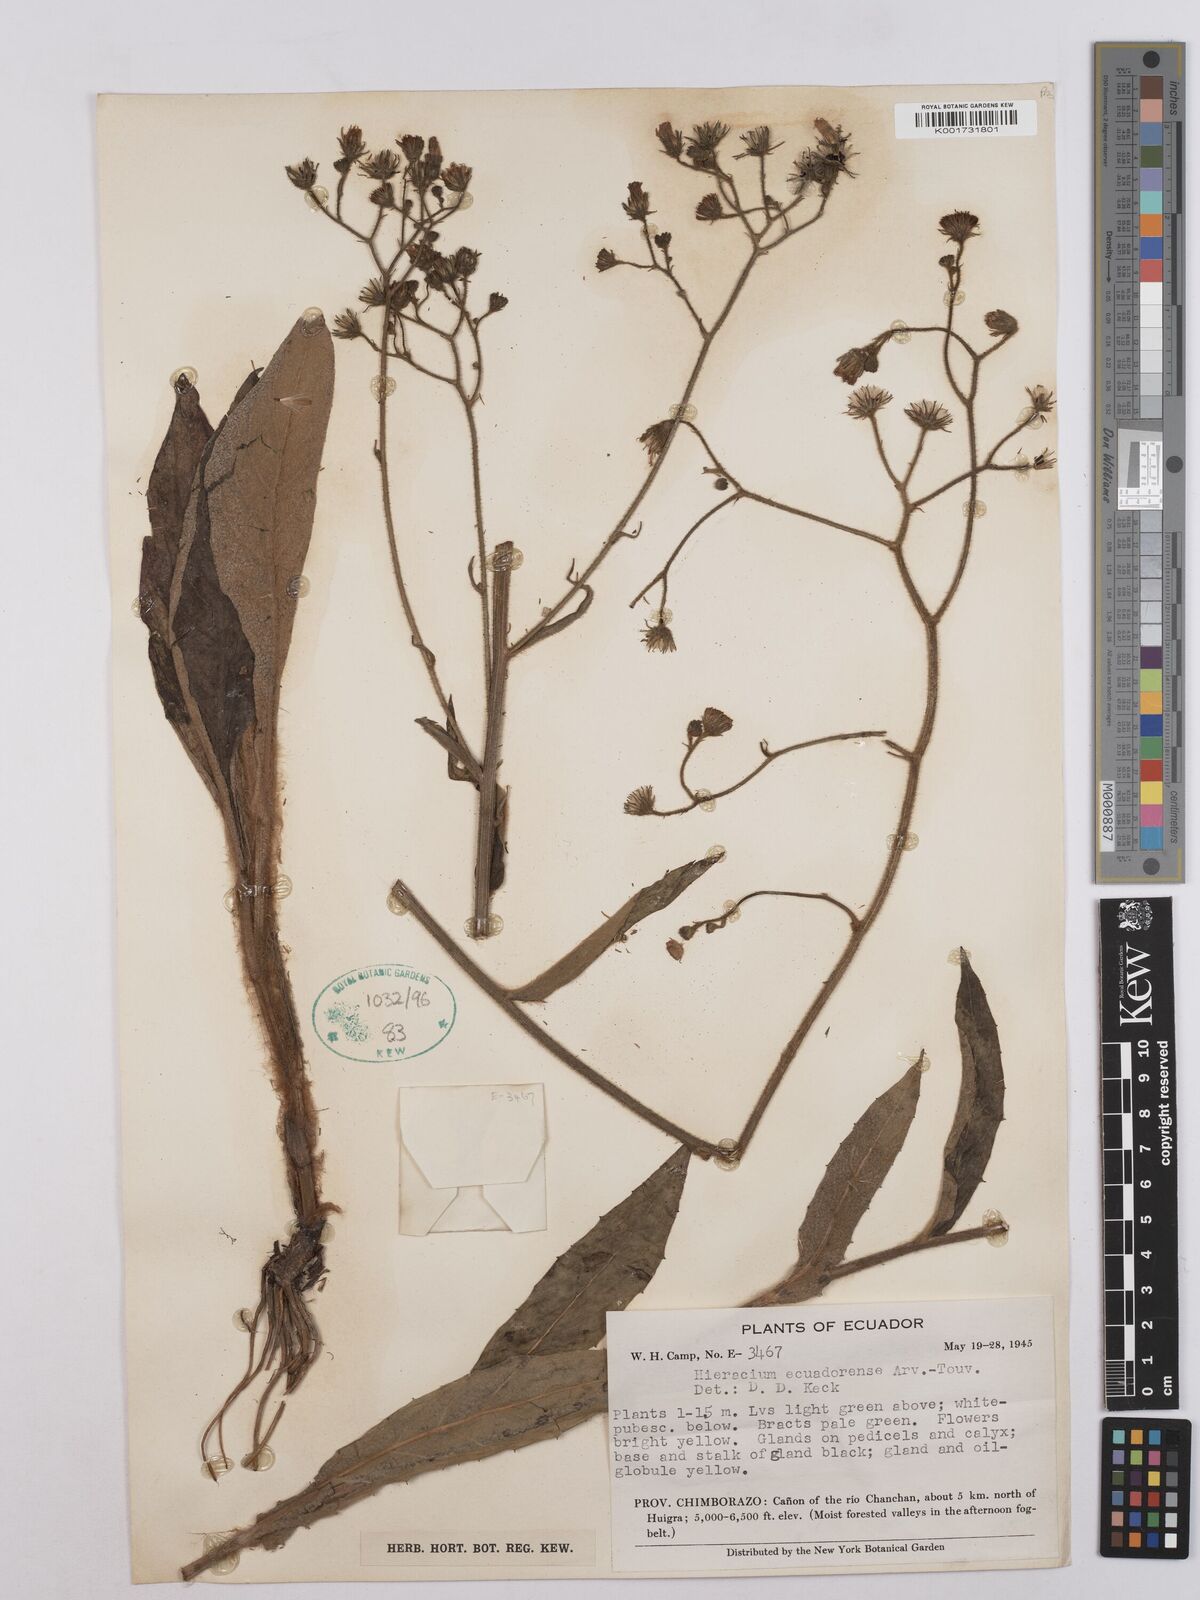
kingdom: Plantae
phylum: Tracheophyta
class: Magnoliopsida
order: Asterales
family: Asteraceae
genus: Hieracium
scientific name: Hieracium ecuadorense
